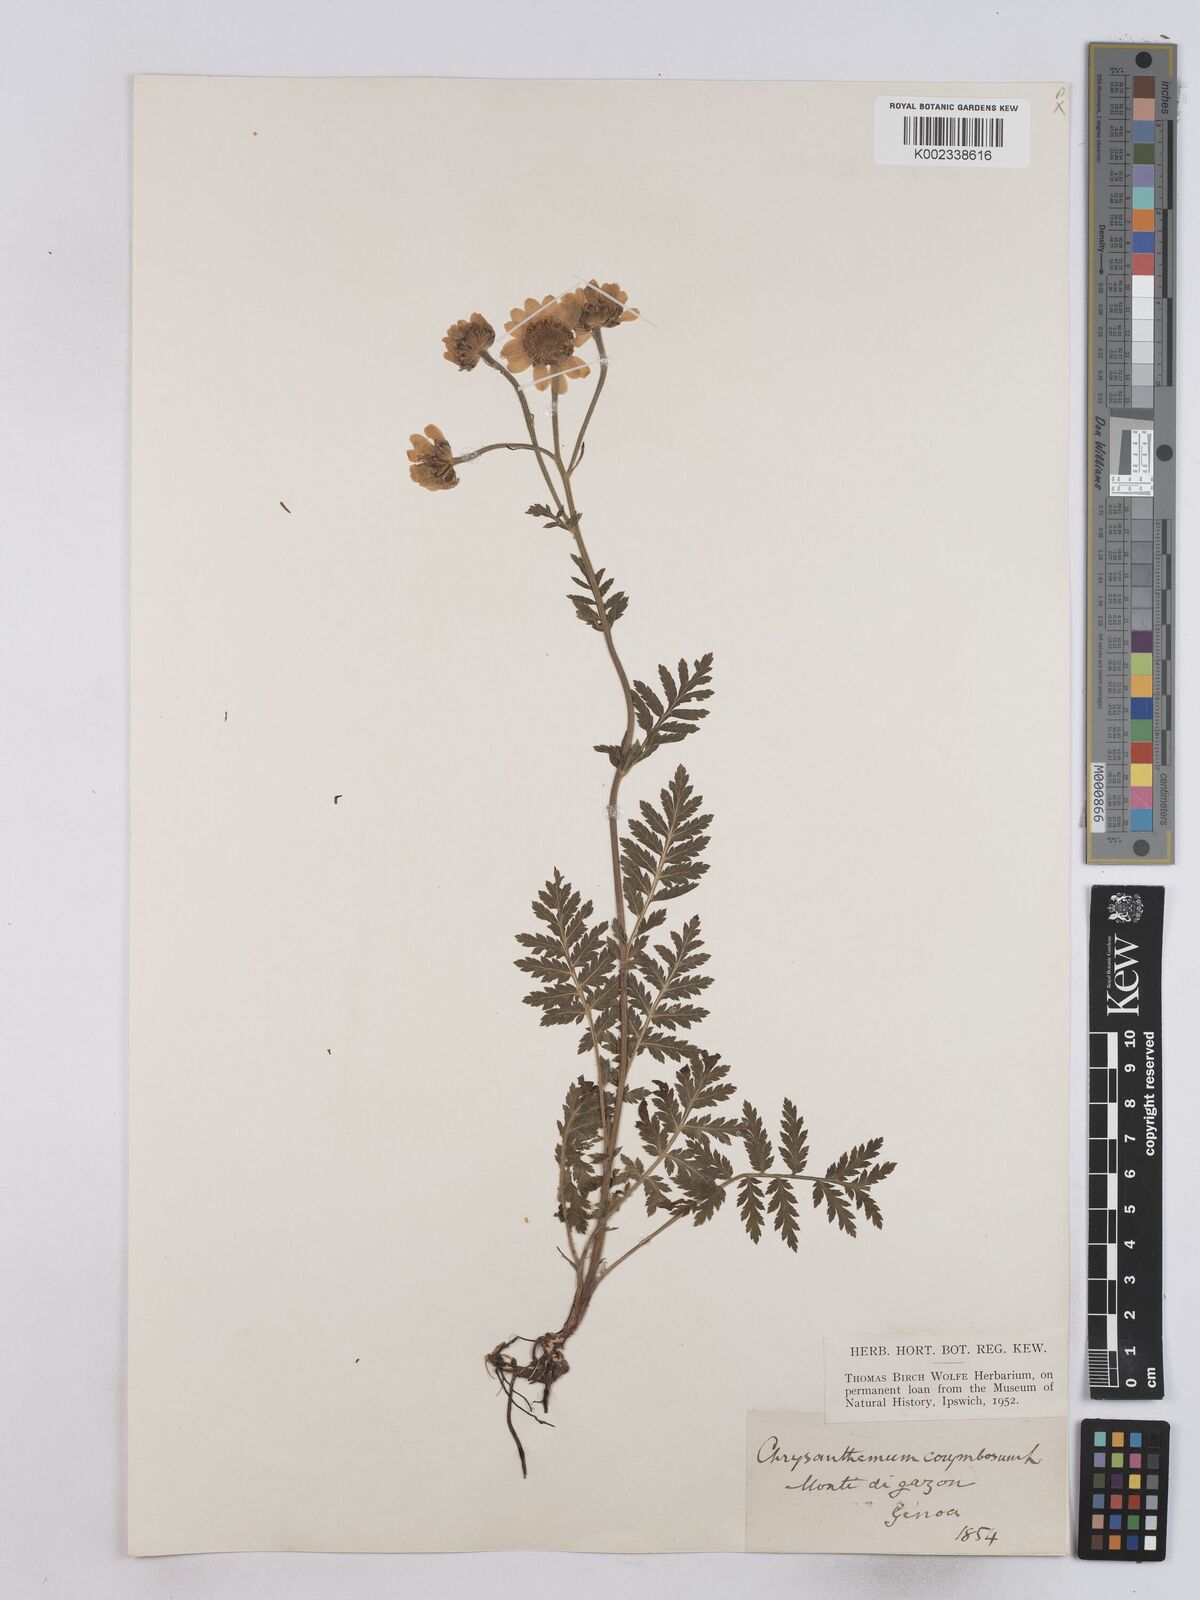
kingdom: Plantae
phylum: Tracheophyta
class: Magnoliopsida
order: Asterales
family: Asteraceae
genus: Tanacetum
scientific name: Tanacetum corymbosum
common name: Scentless feverfew
